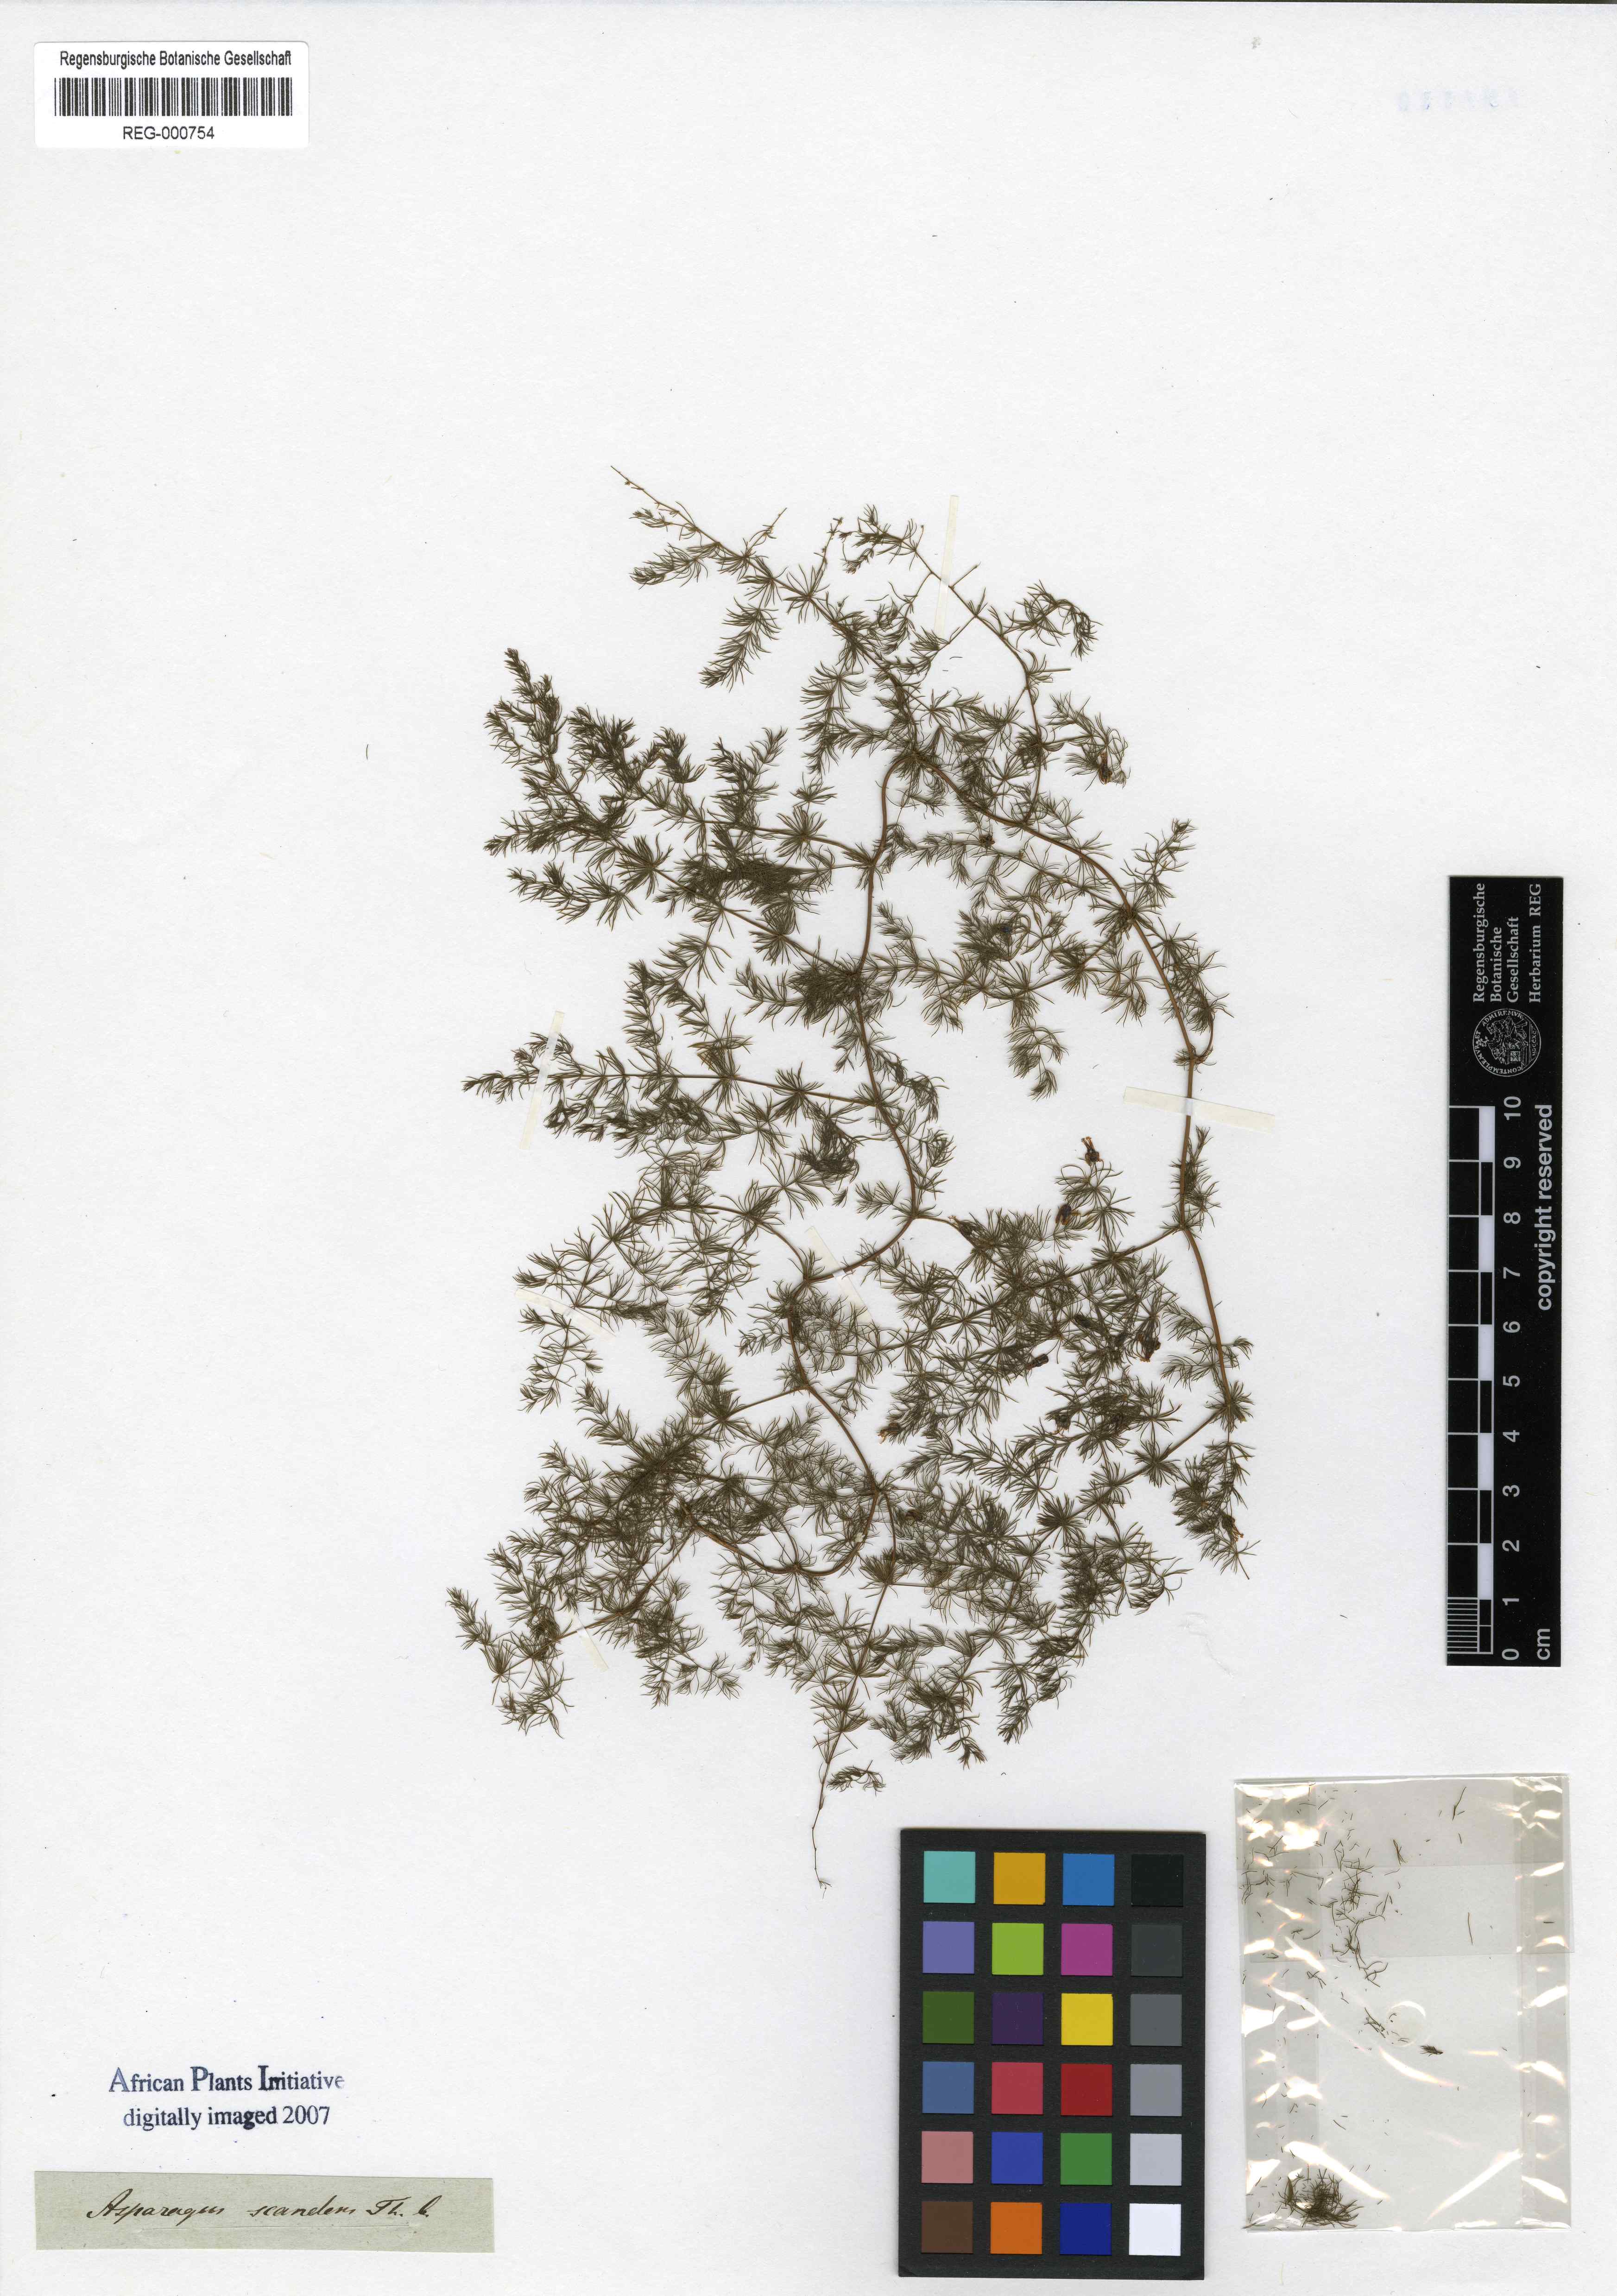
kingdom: Plantae
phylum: Tracheophyta
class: Liliopsida
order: Asparagales
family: Asparagaceae
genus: Asparagus
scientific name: Asparagus scandens
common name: Asparagus-fern
